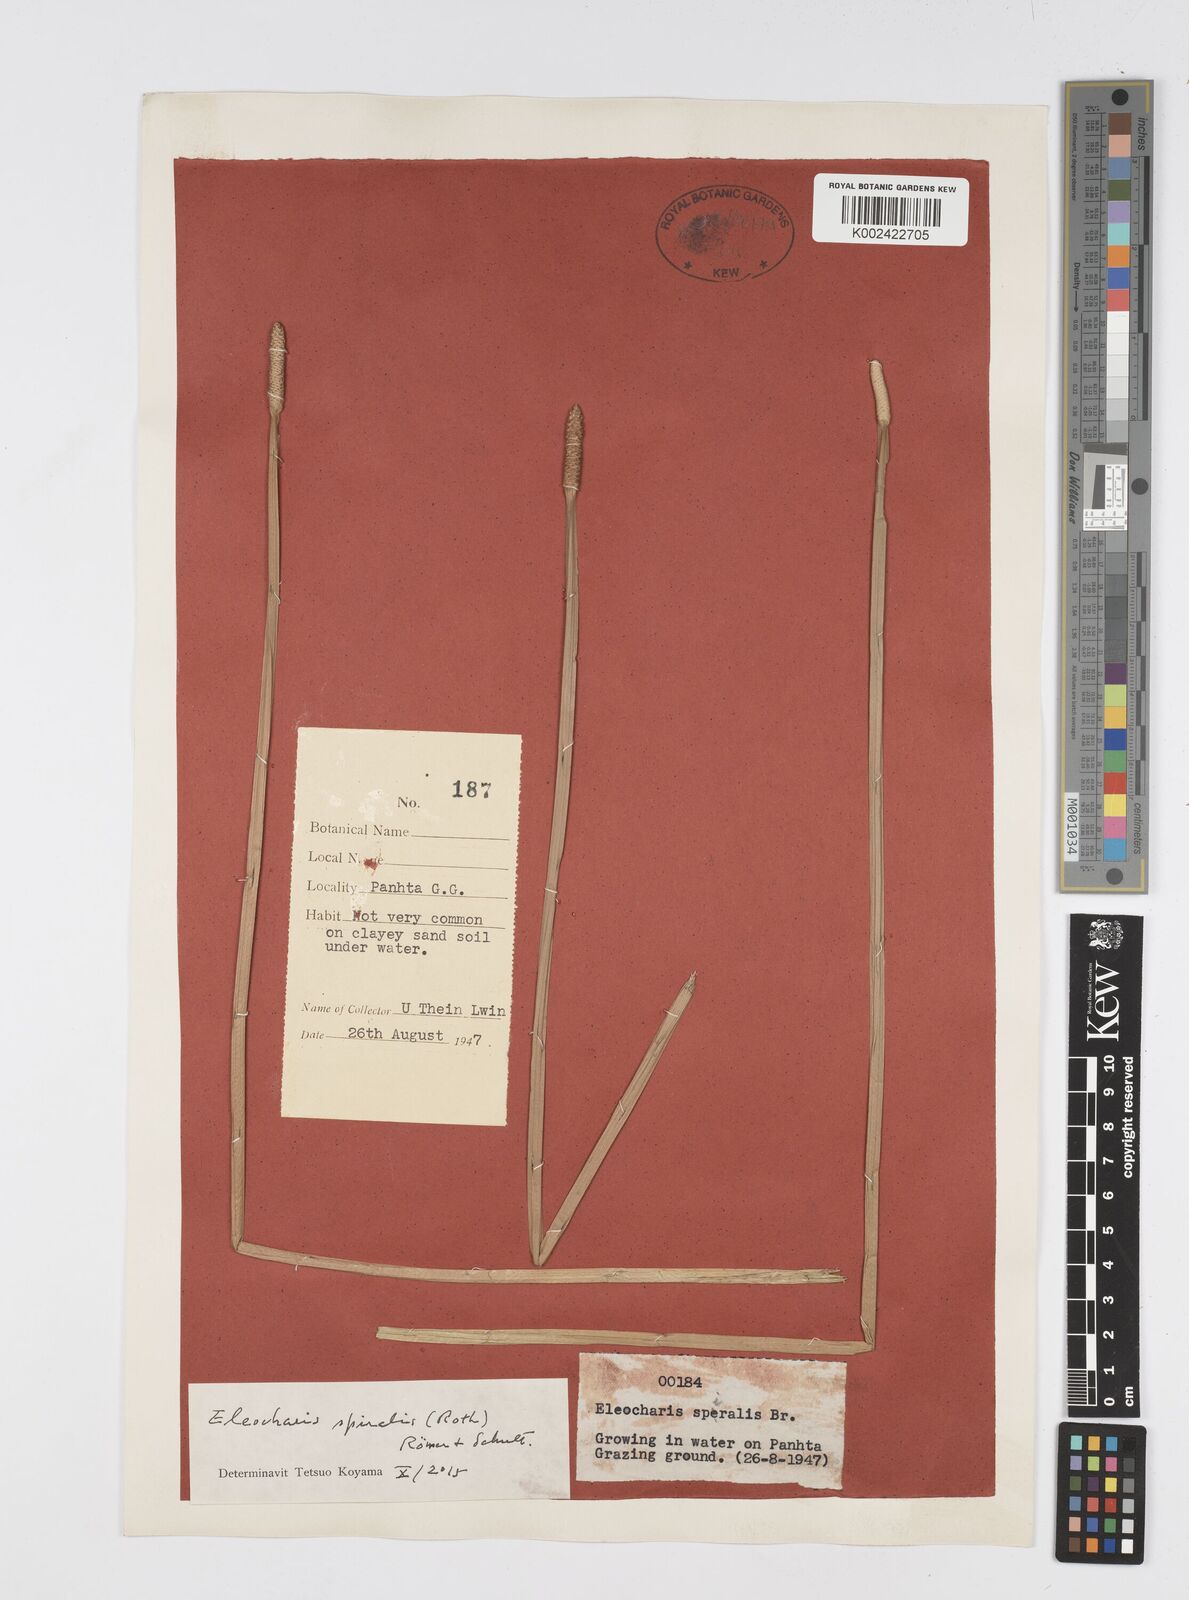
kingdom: Plantae
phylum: Tracheophyta
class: Liliopsida
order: Poales
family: Cyperaceae
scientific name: Cyperaceae
